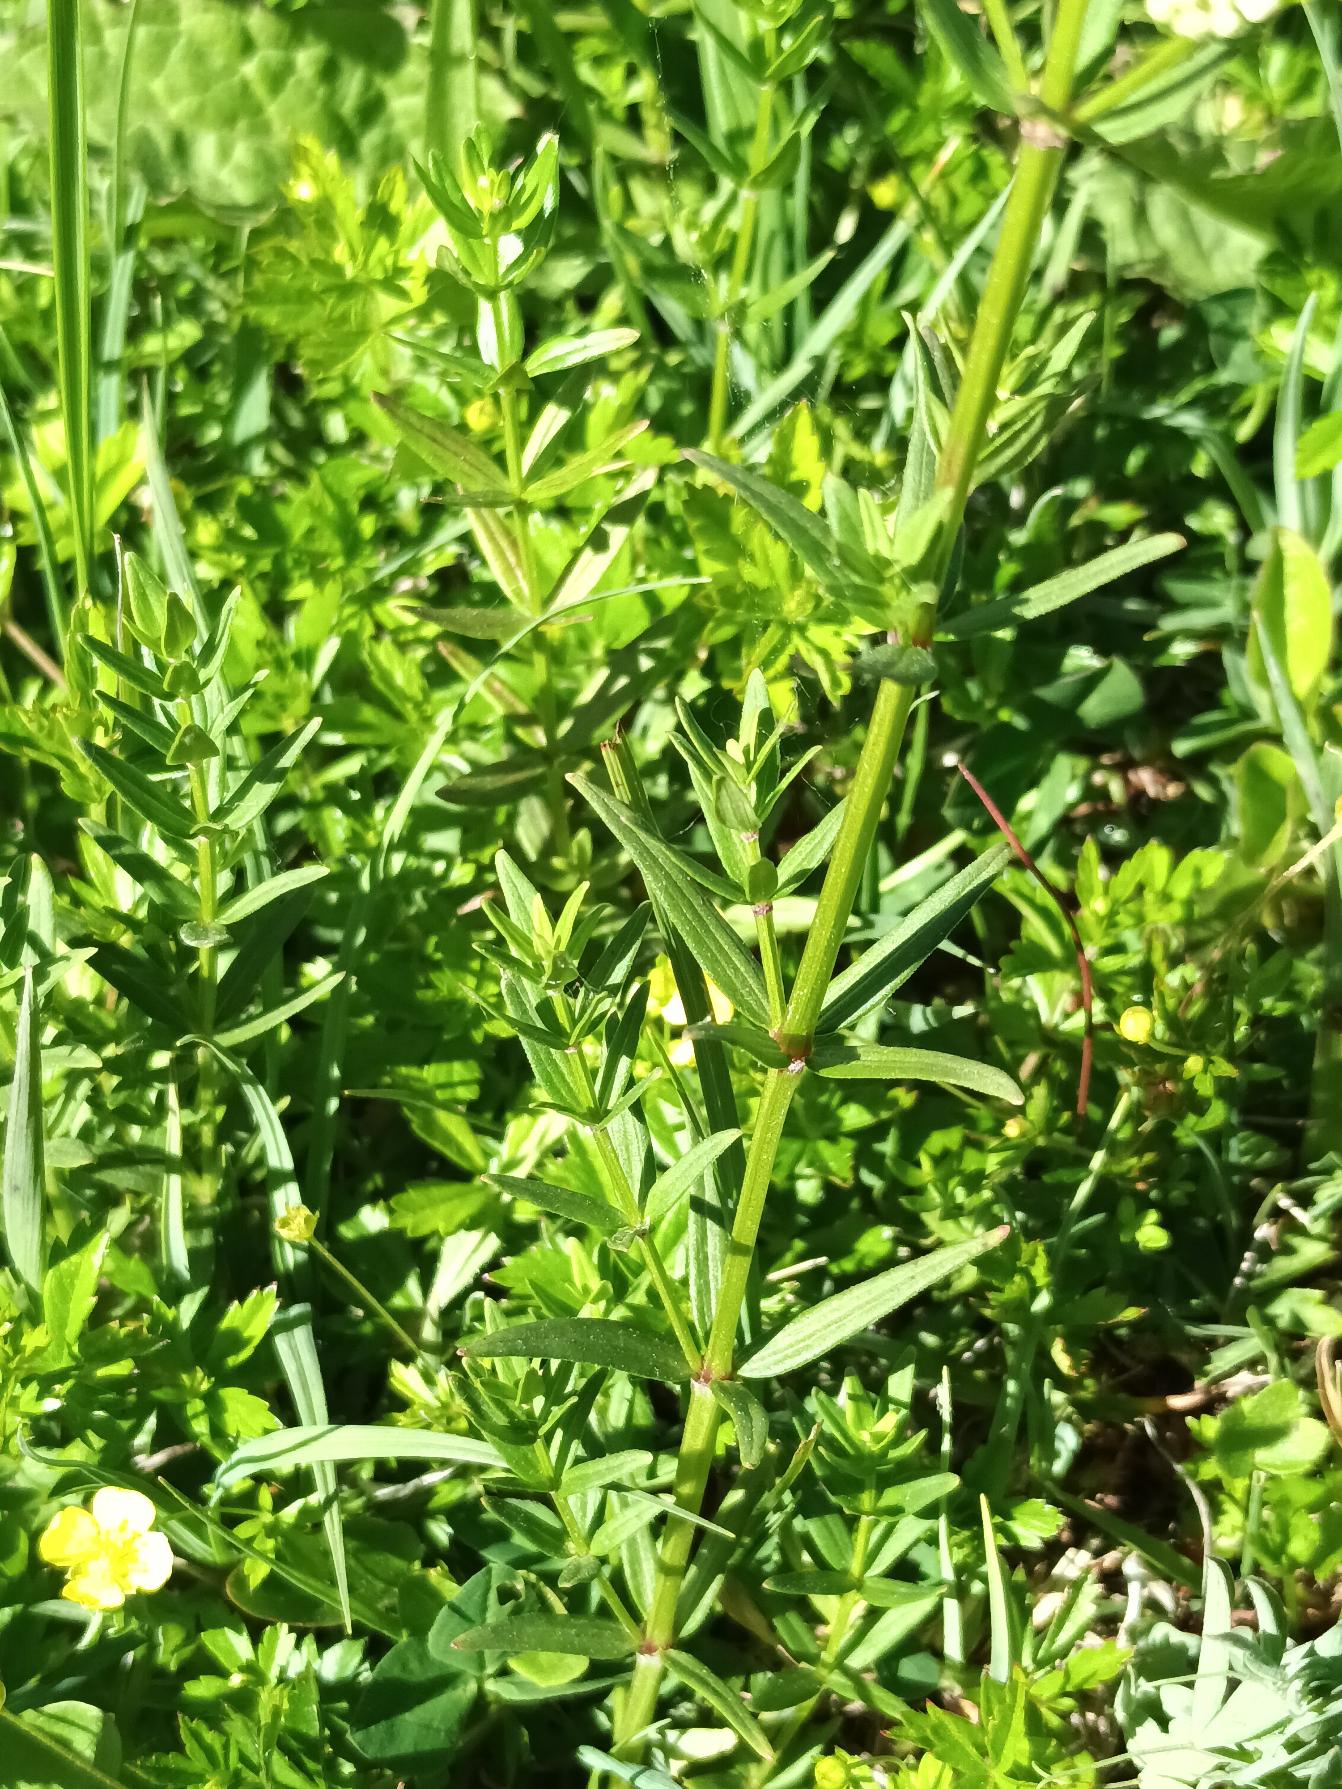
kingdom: Plantae
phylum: Tracheophyta
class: Magnoliopsida
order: Gentianales
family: Rubiaceae
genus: Galium
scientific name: Galium boreale
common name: Trenervet snerre
